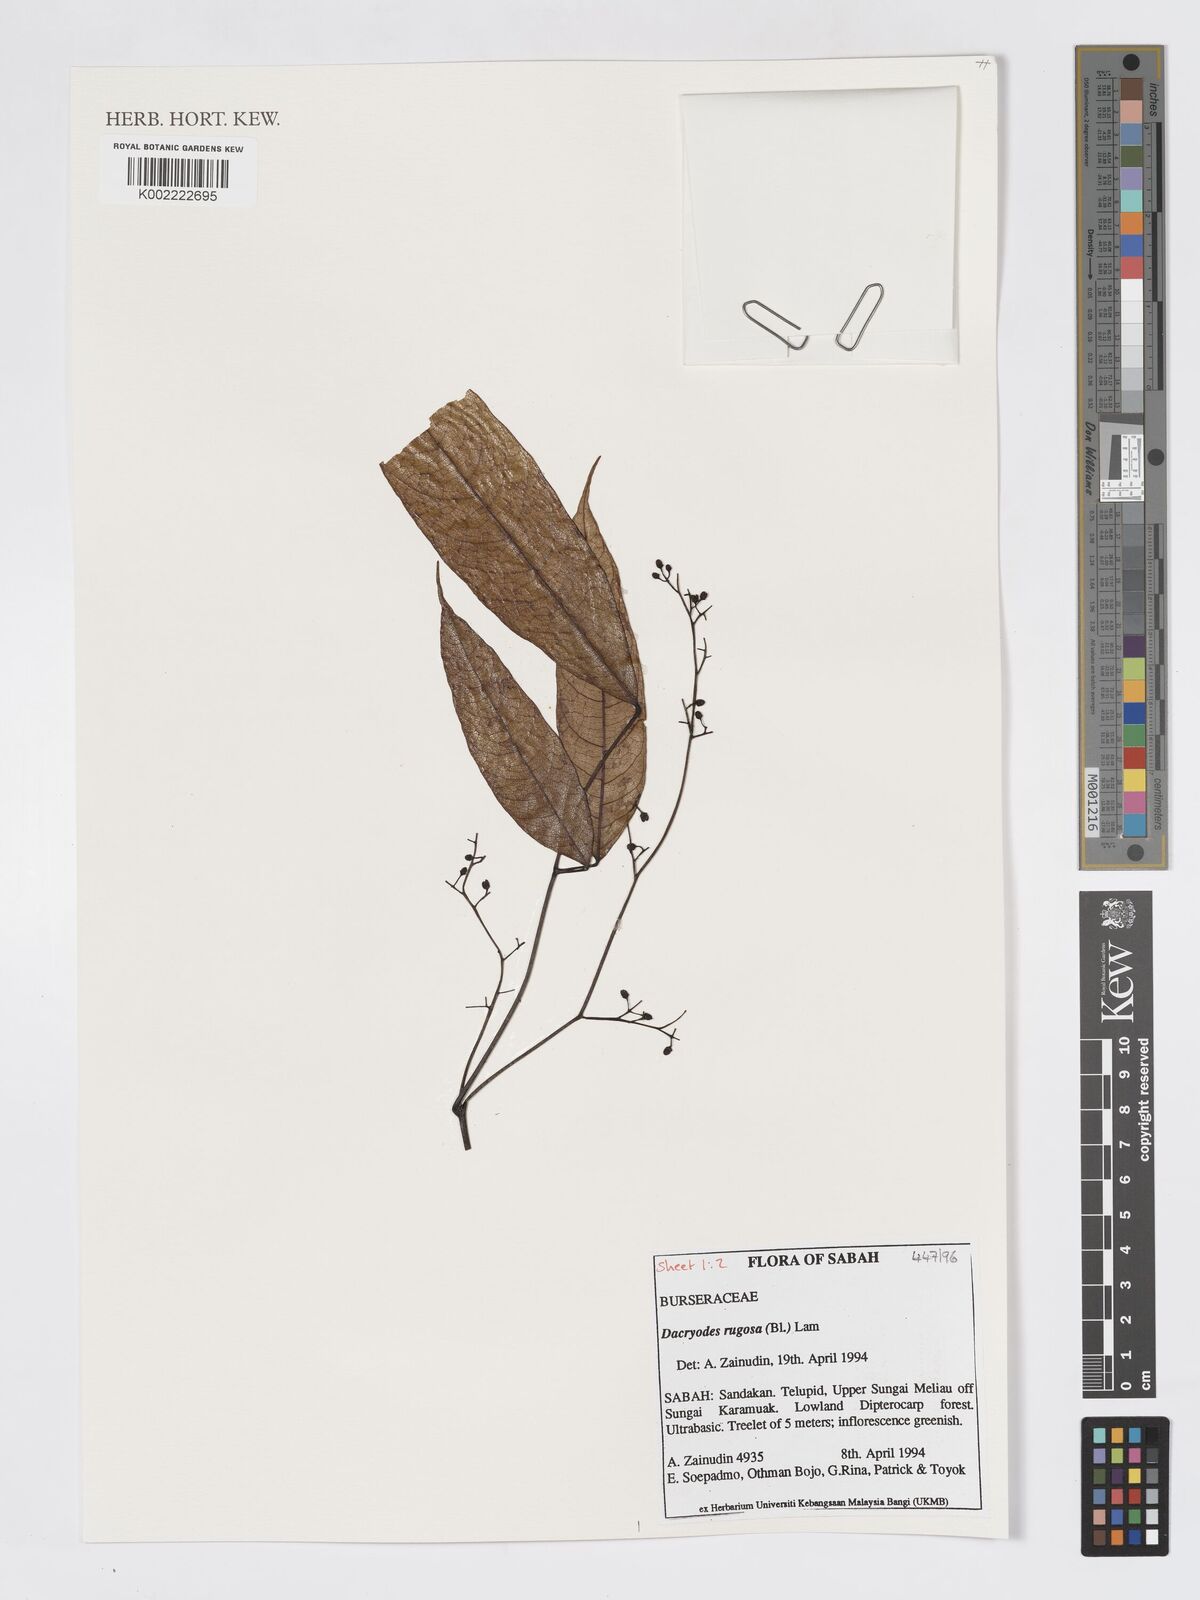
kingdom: Plantae
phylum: Tracheophyta
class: Magnoliopsida
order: Sapindales
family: Burseraceae
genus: Dacryodes
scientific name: Dacryodes rugosa
